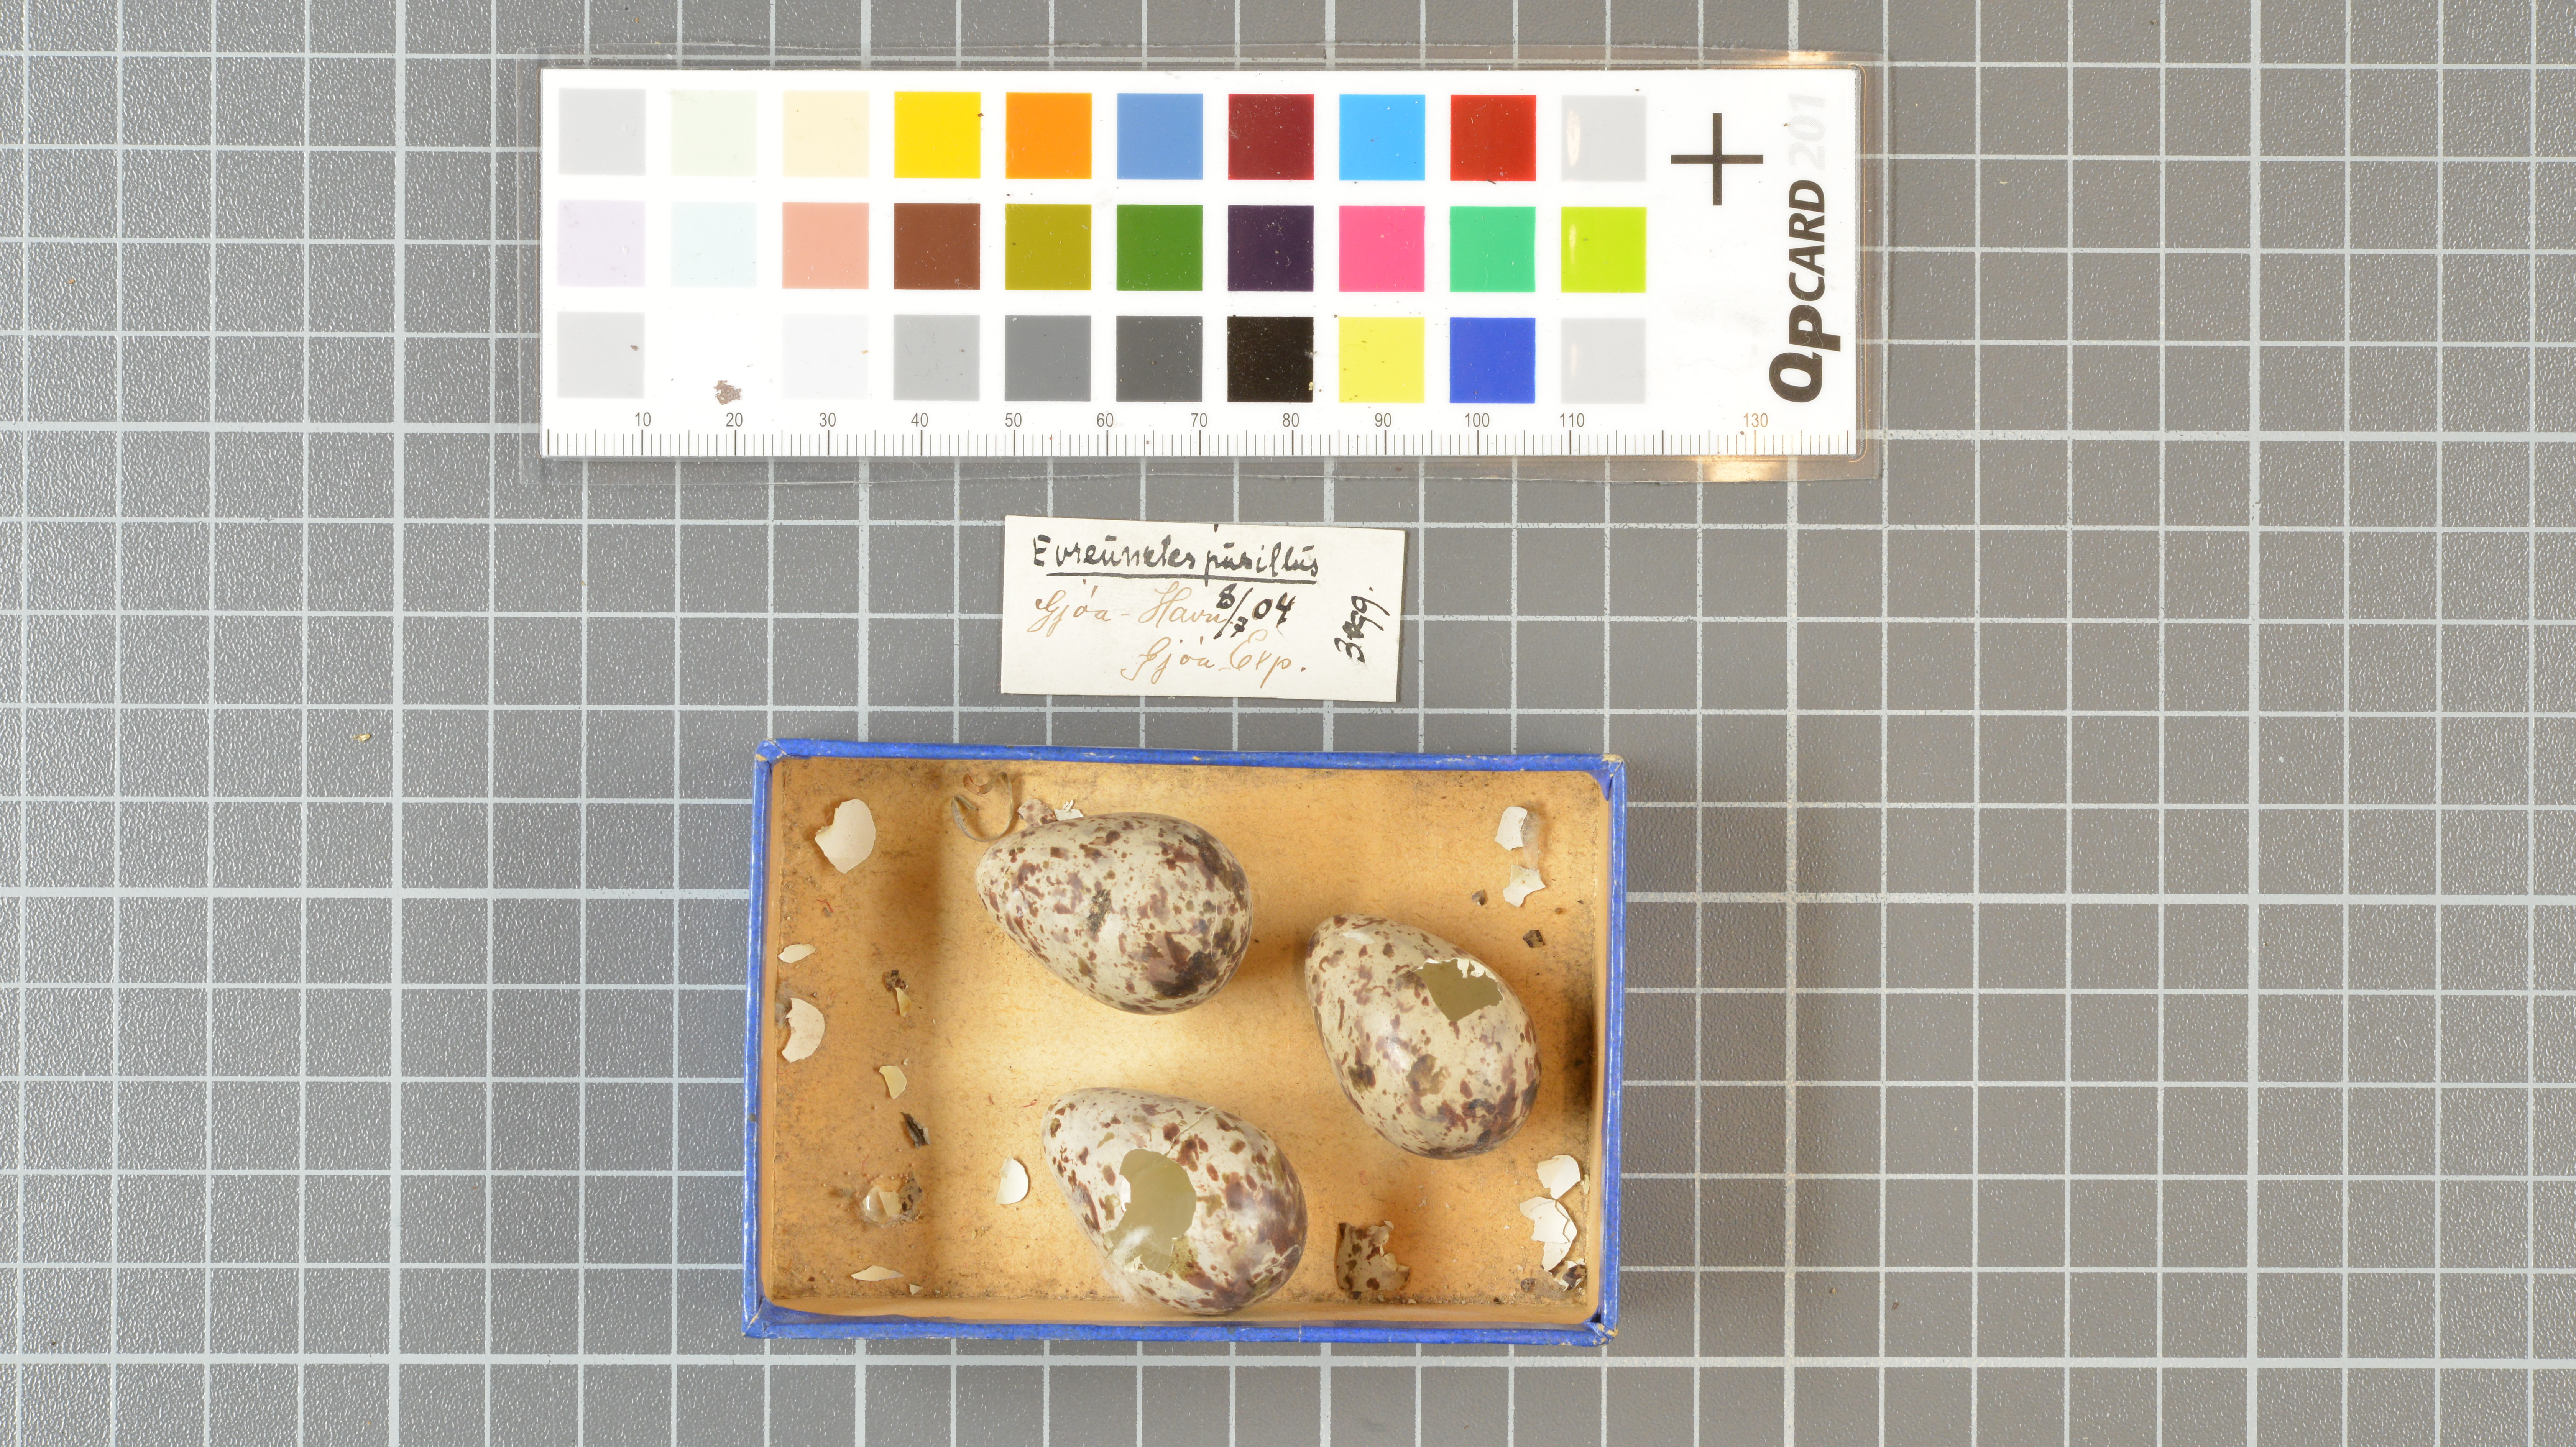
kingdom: Animalia
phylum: Chordata
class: Aves
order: Charadriiformes
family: Scolopacidae
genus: Calidris
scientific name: Calidris pusilla
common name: Semipalmated sandpiper
